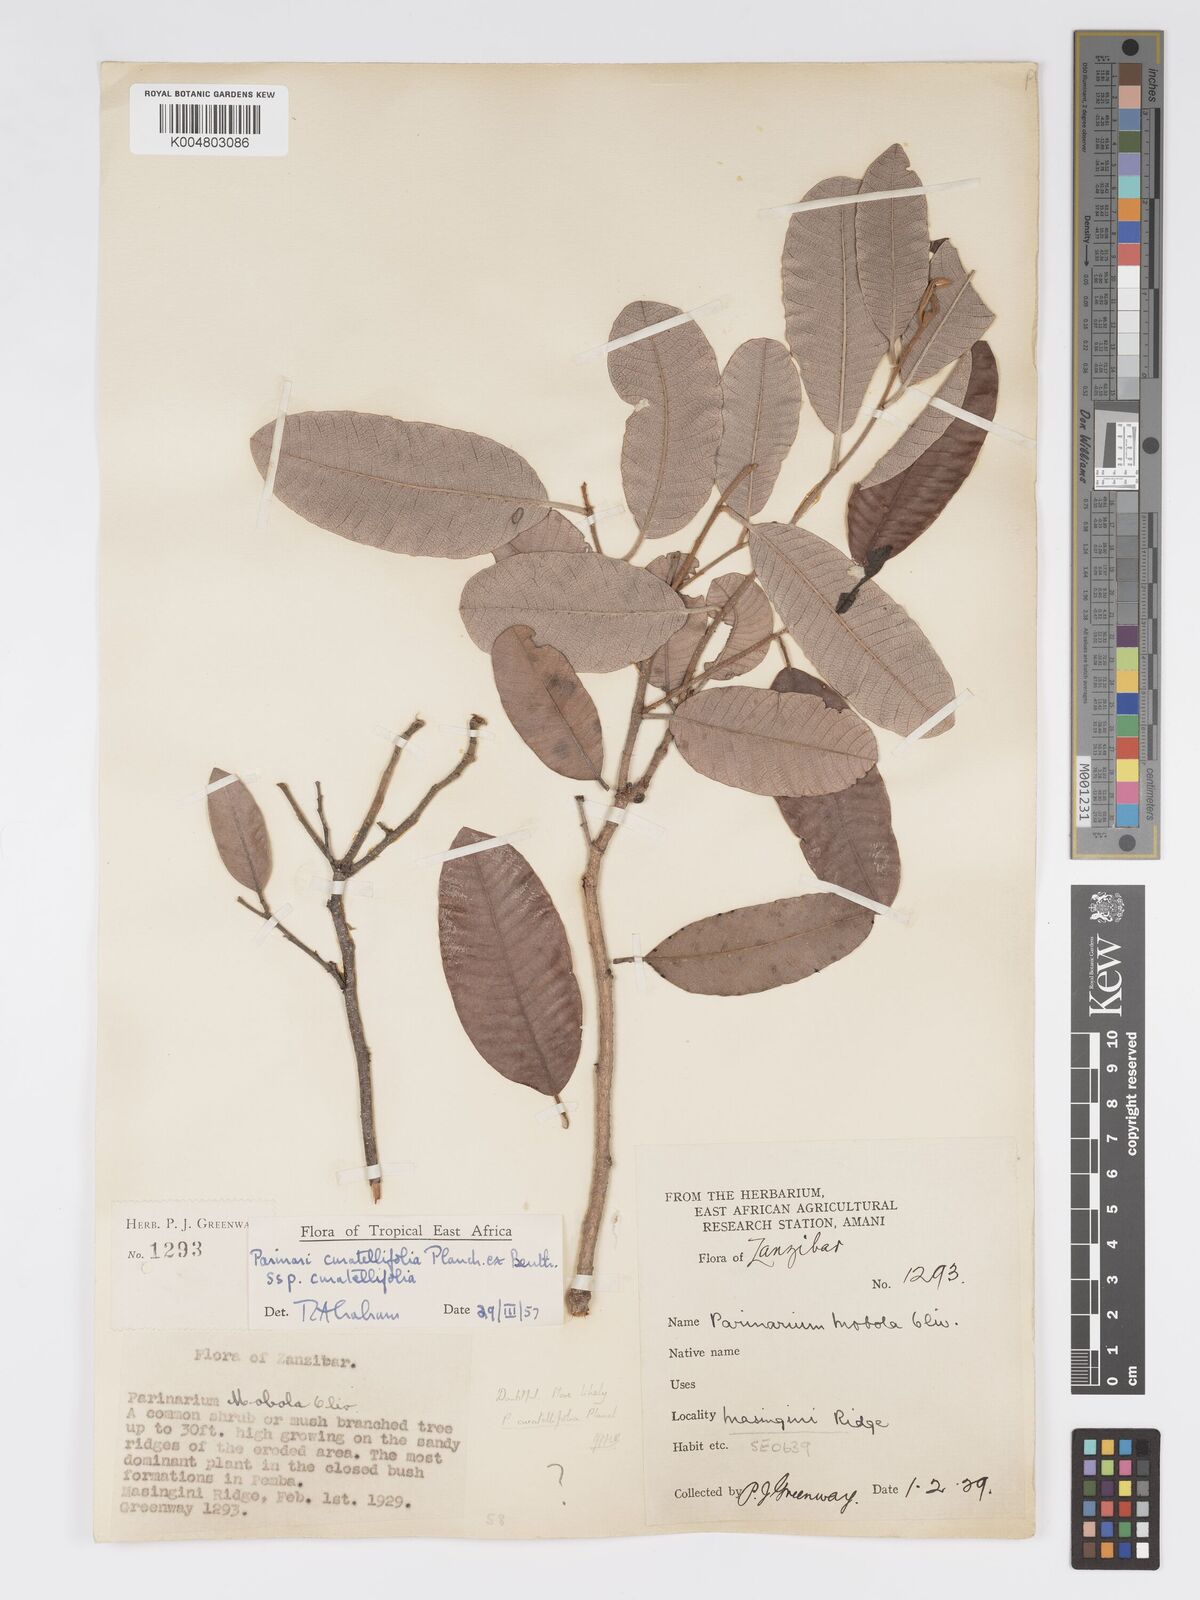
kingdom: Plantae
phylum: Tracheophyta
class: Magnoliopsida
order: Malpighiales
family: Chrysobalanaceae
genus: Parinari
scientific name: Parinari curatellifolia
